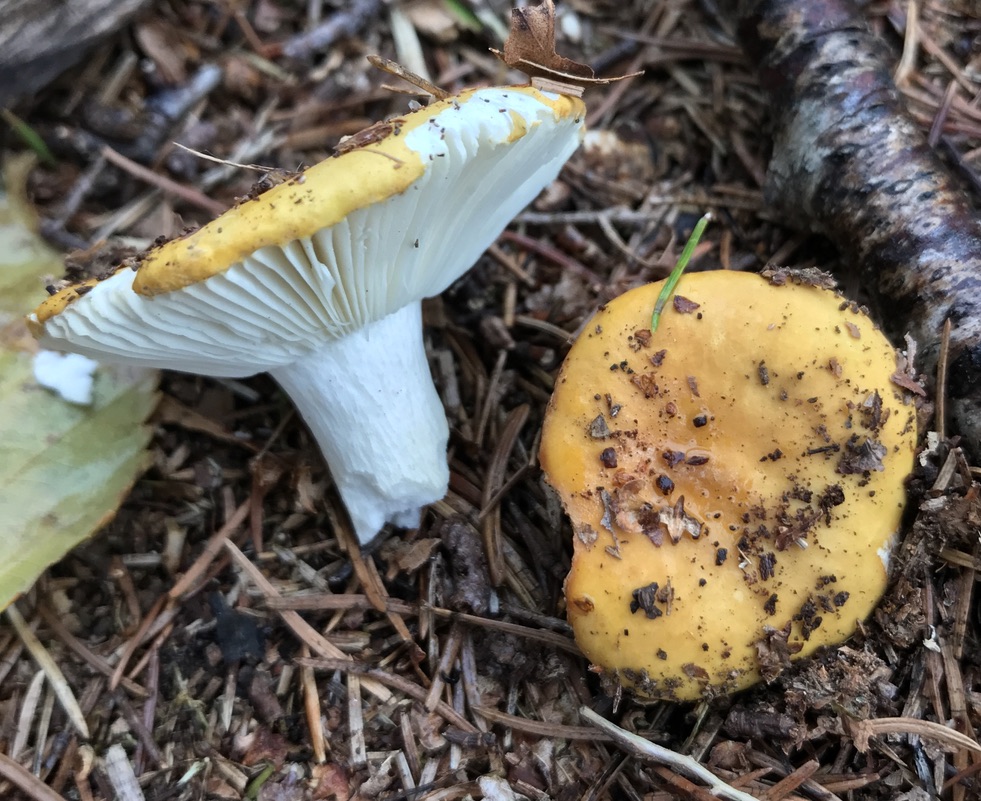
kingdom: Fungi
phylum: Basidiomycota
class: Agaricomycetes
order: Russulales
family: Russulaceae
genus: Russula
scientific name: Russula ochroleuca
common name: okkergul skørhat
